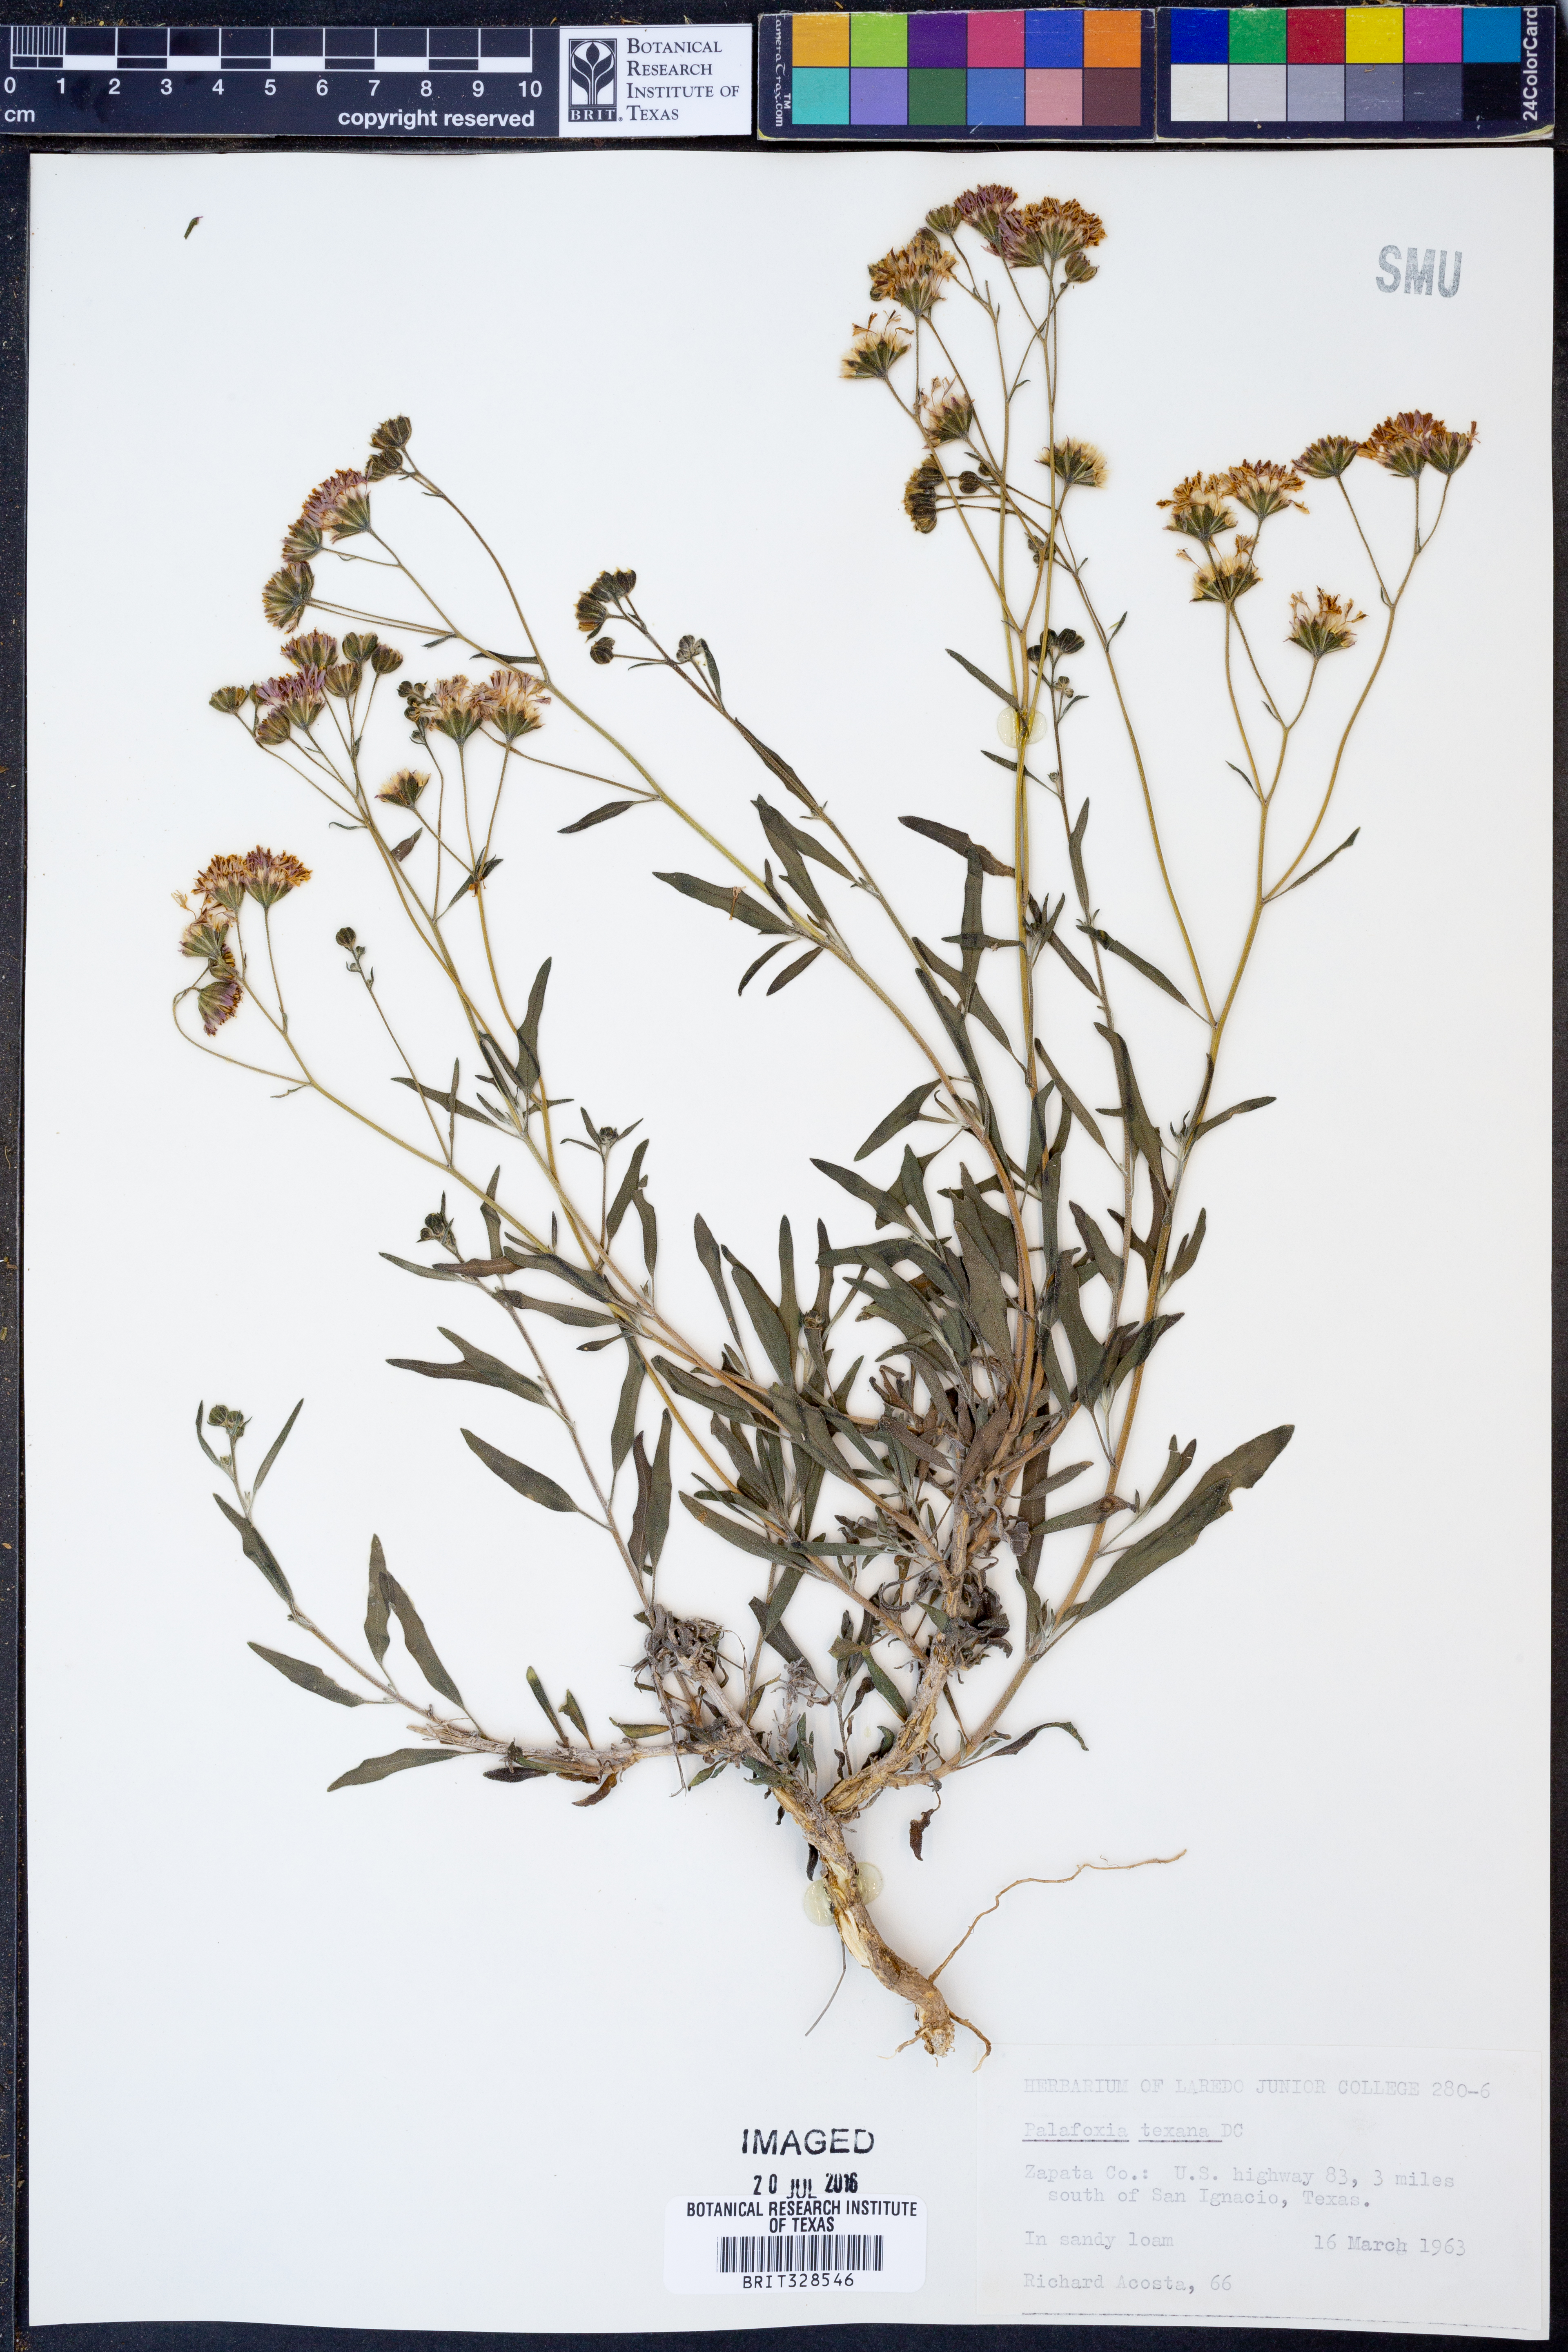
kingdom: Plantae
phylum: Tracheophyta
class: Magnoliopsida
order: Asterales
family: Asteraceae
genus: Palafoxia
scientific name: Palafoxia texana
